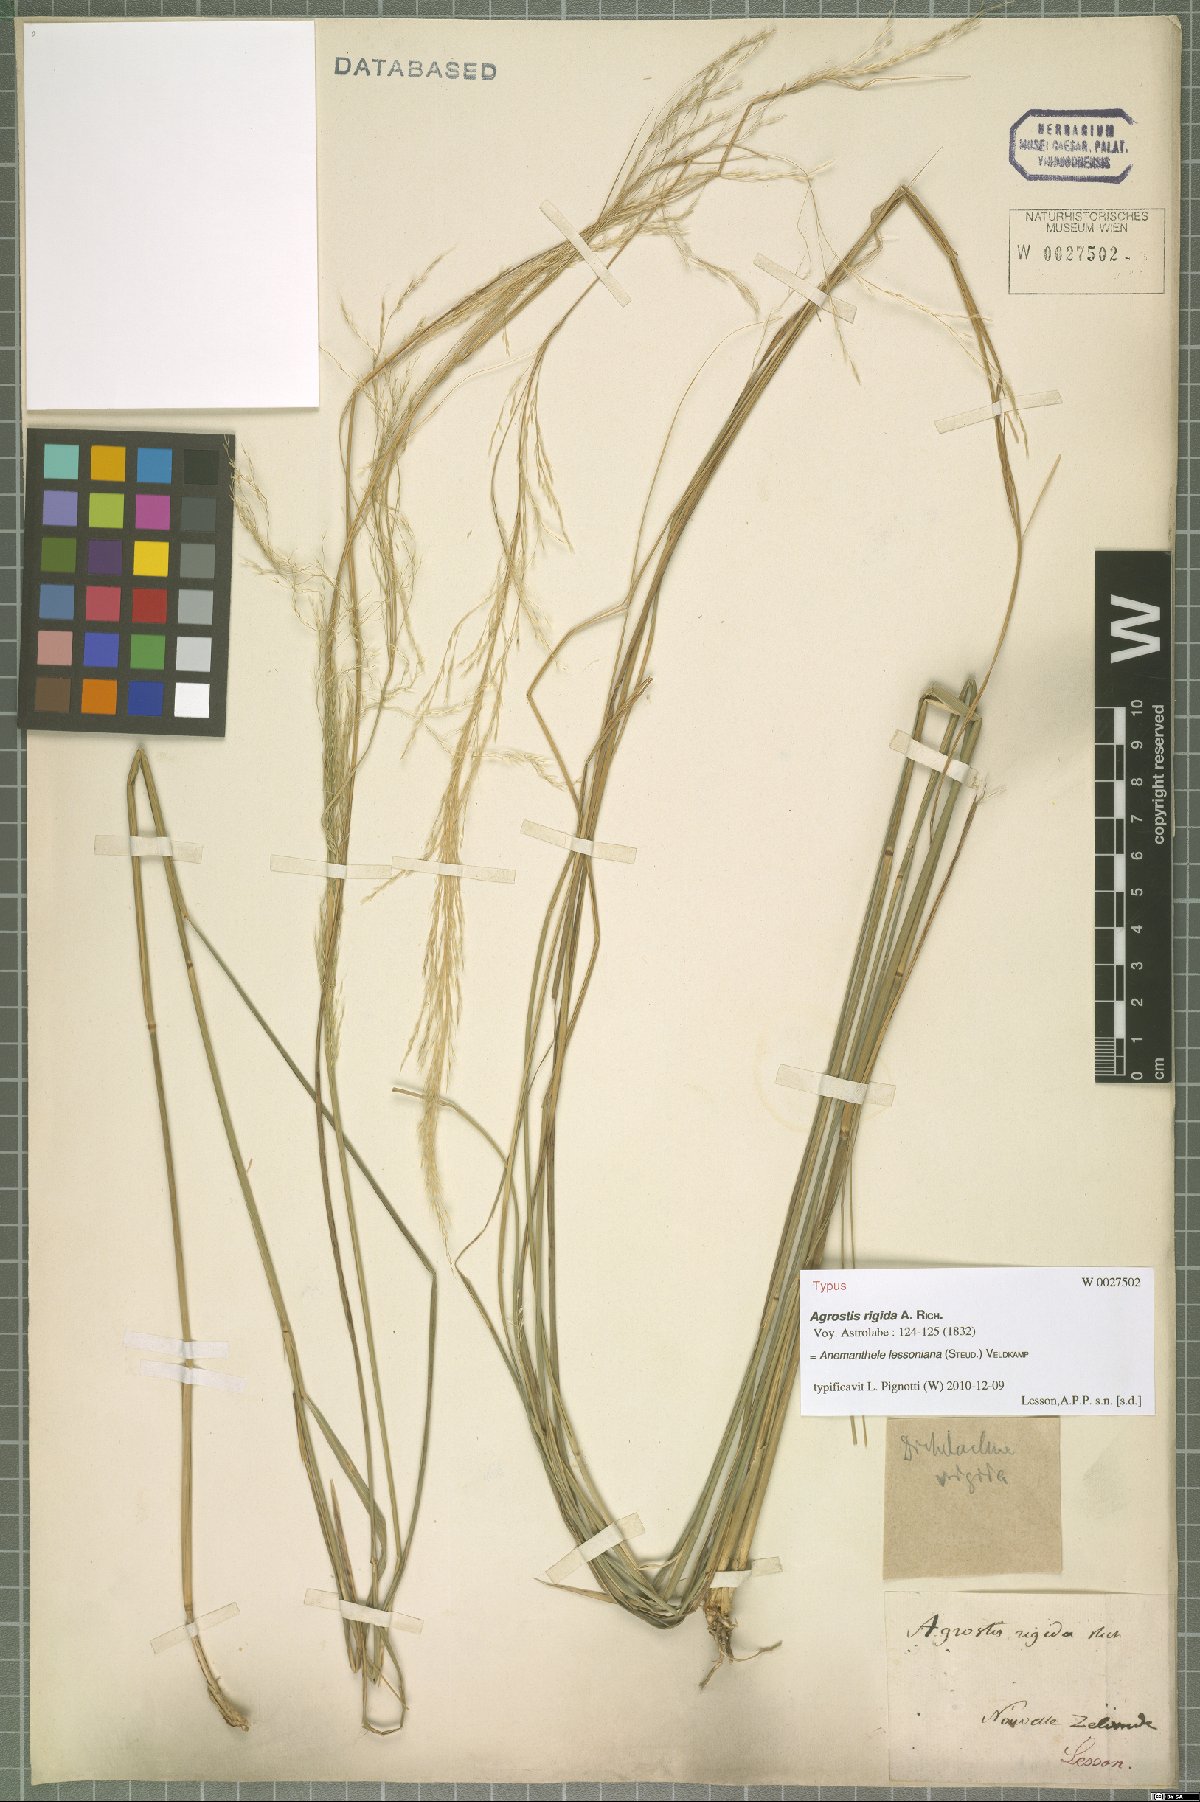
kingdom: Plantae
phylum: Tracheophyta
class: Liliopsida
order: Poales
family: Poaceae
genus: Anemanthele
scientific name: Anemanthele lessoniana
